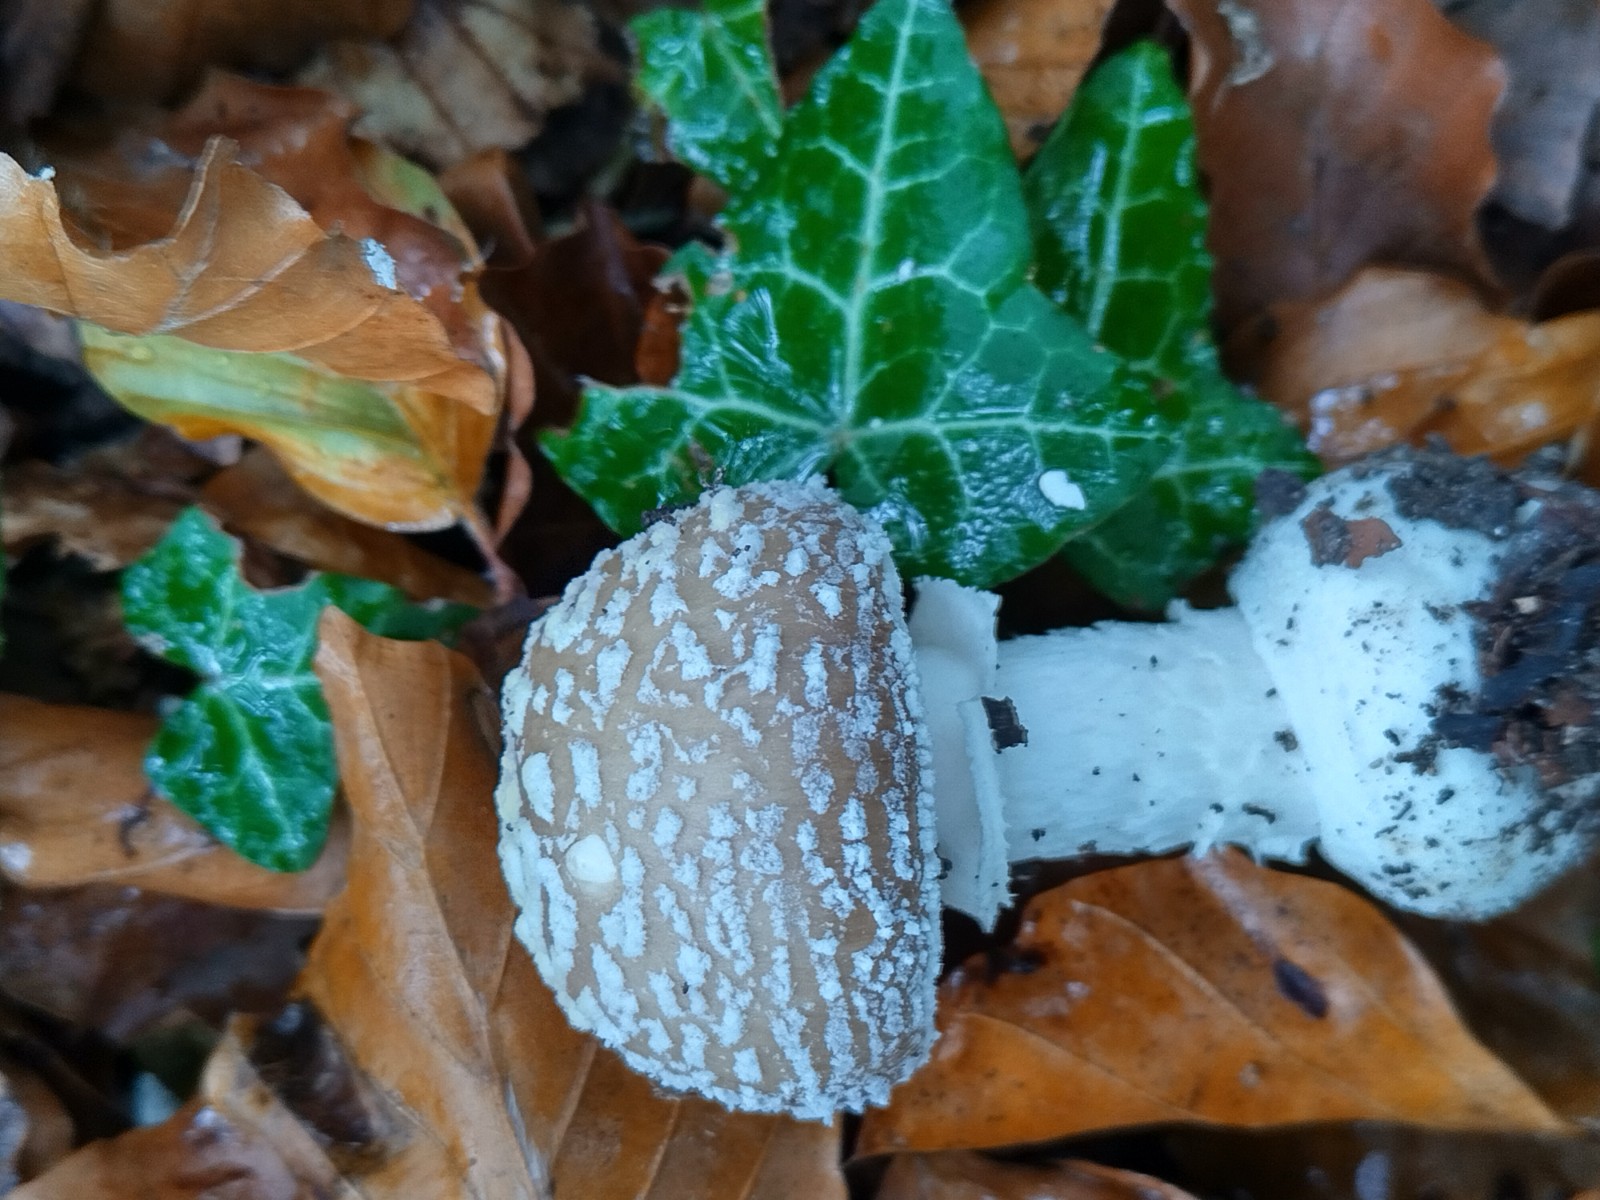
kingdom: Fungi
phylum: Basidiomycota
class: Agaricomycetes
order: Agaricales
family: Amanitaceae
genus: Amanita
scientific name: Amanita pantherina
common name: panter-fluesvamp
